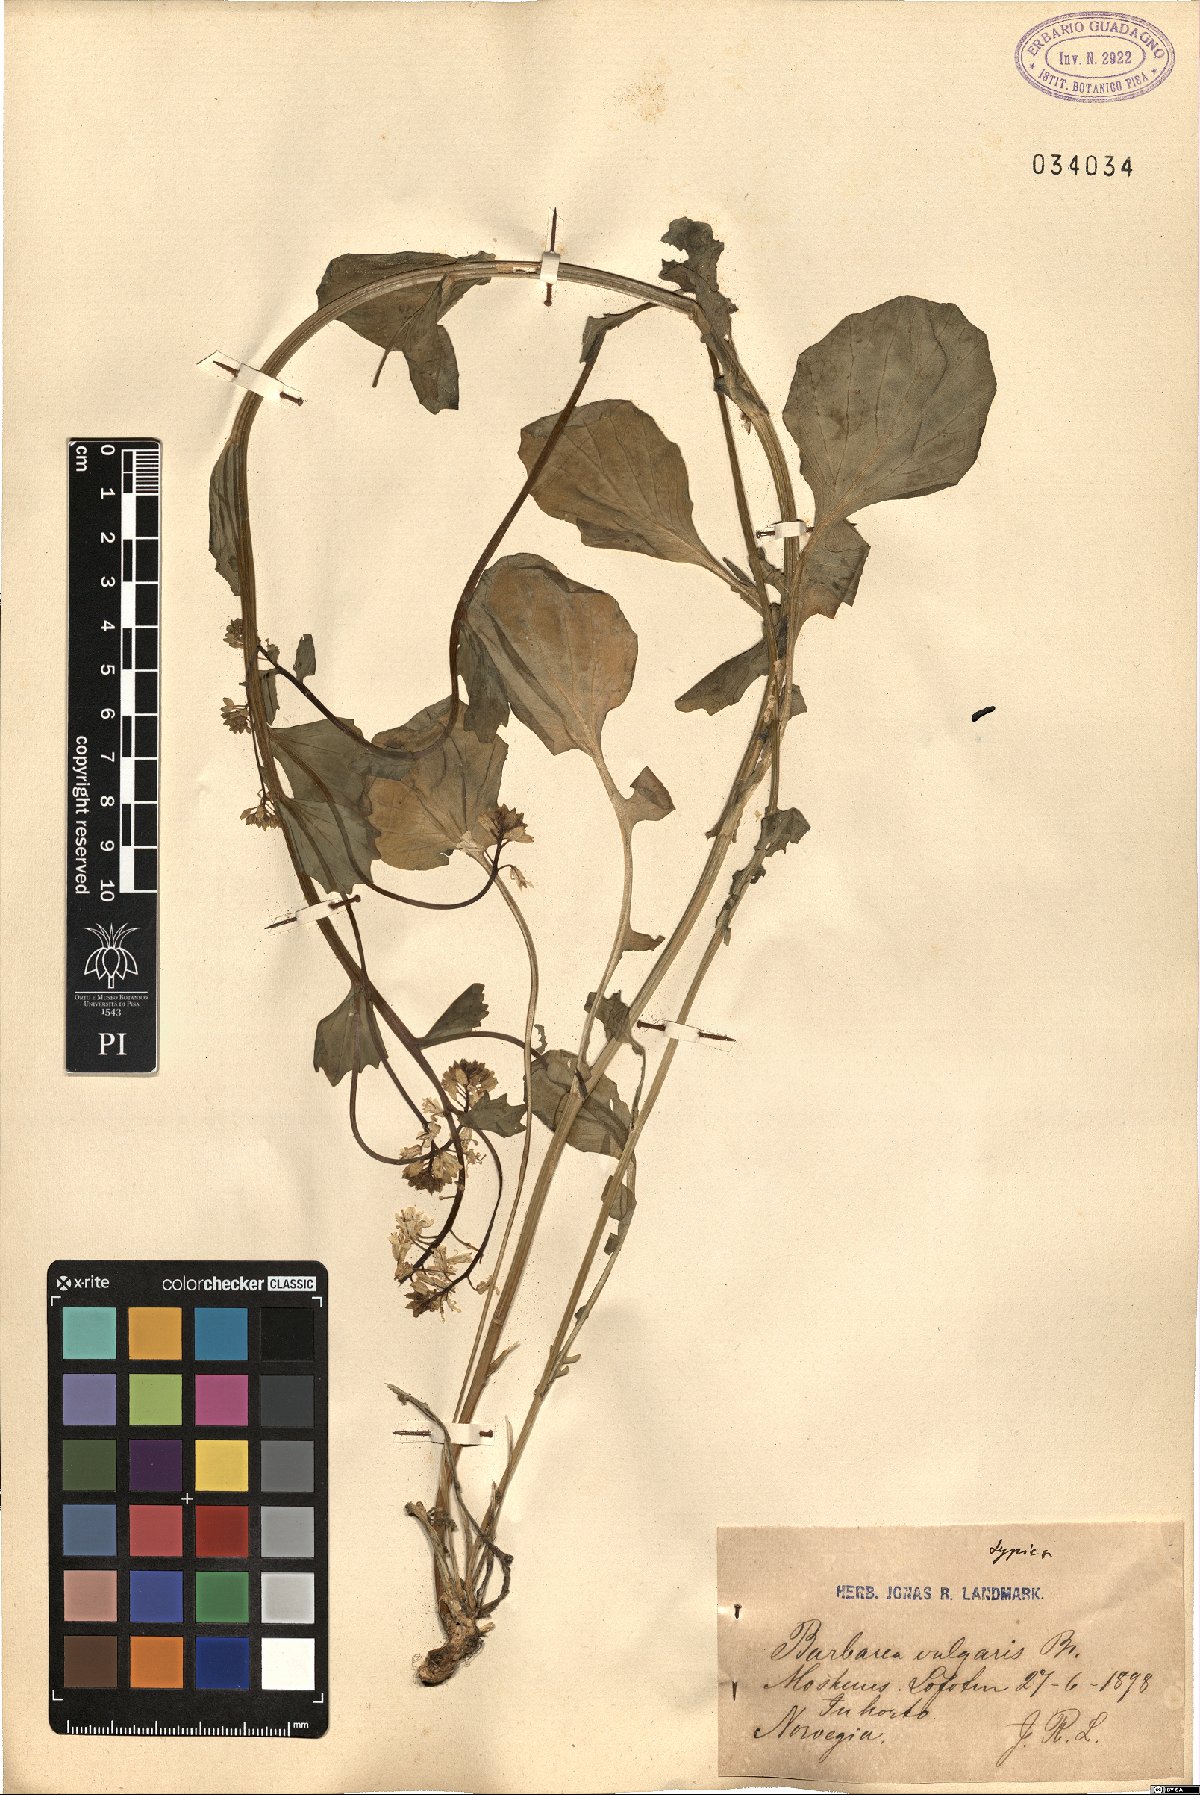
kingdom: Plantae
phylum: Tracheophyta
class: Magnoliopsida
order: Brassicales
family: Brassicaceae
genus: Barbarea
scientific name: Barbarea vulgaris
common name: Cressy-greens
